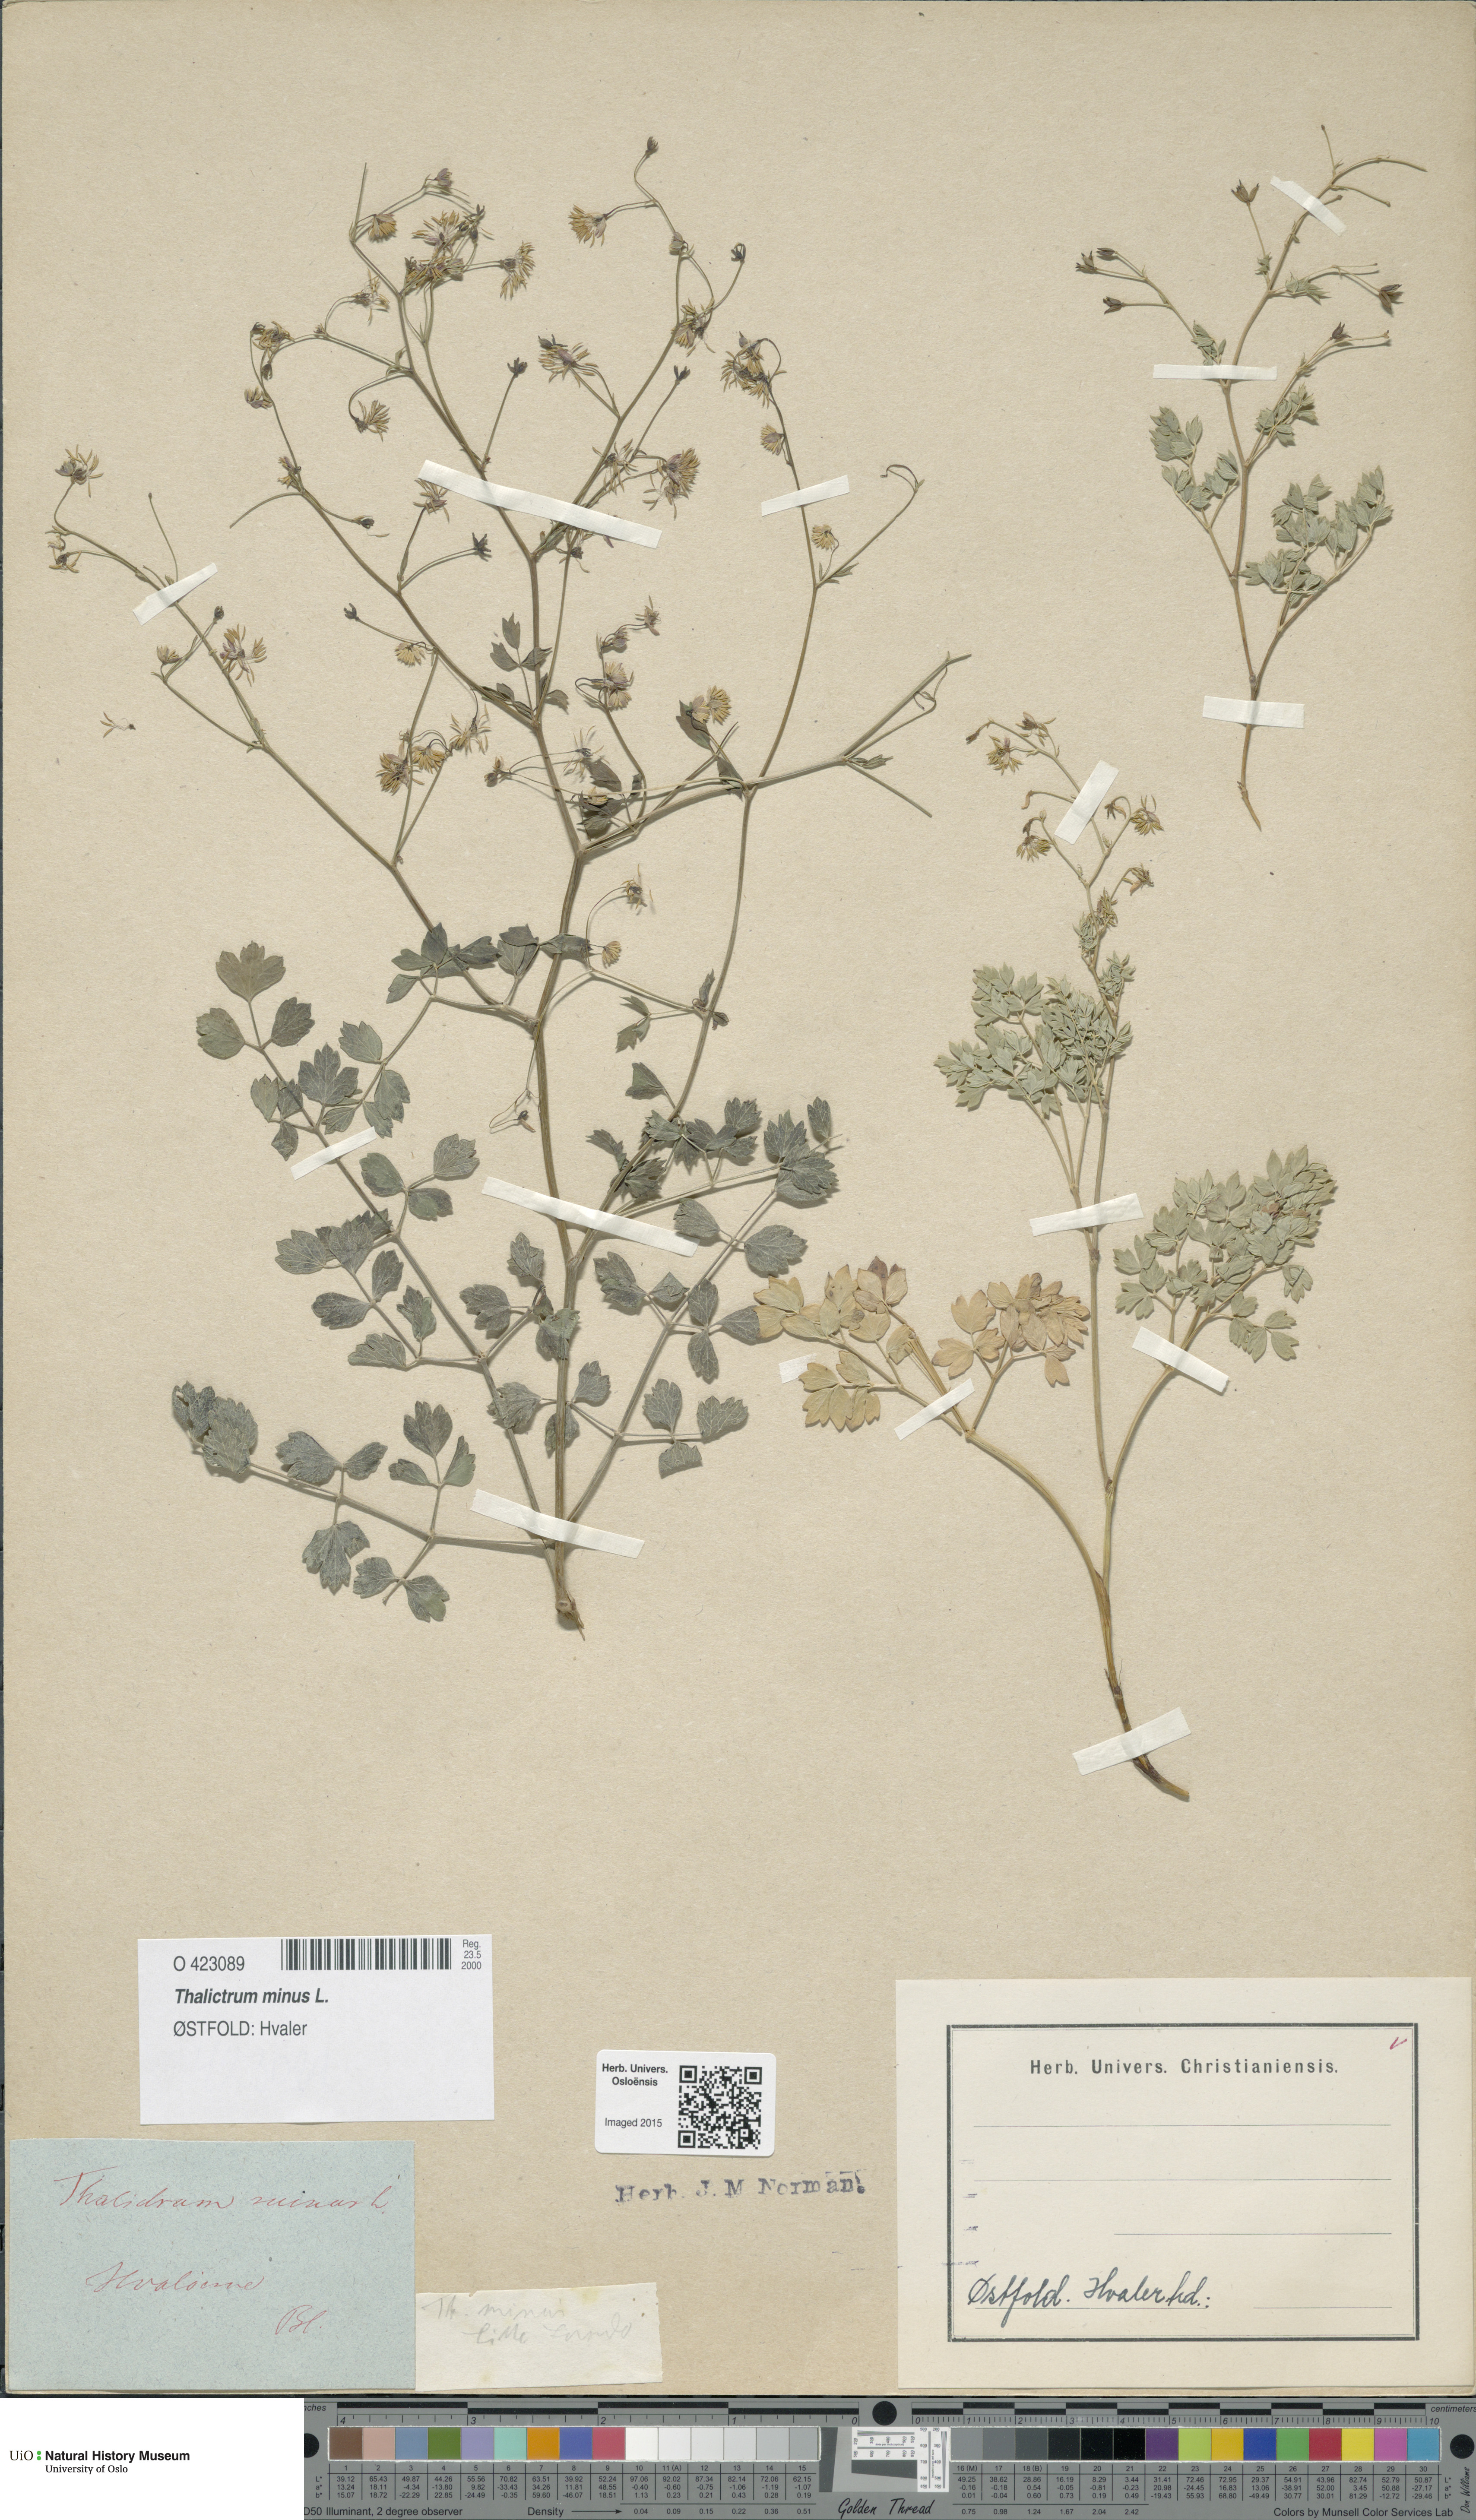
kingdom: Plantae
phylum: Tracheophyta
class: Magnoliopsida
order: Ranunculales
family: Ranunculaceae
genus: Thalictrum
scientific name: Thalictrum minus
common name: Lesser meadow-rue
